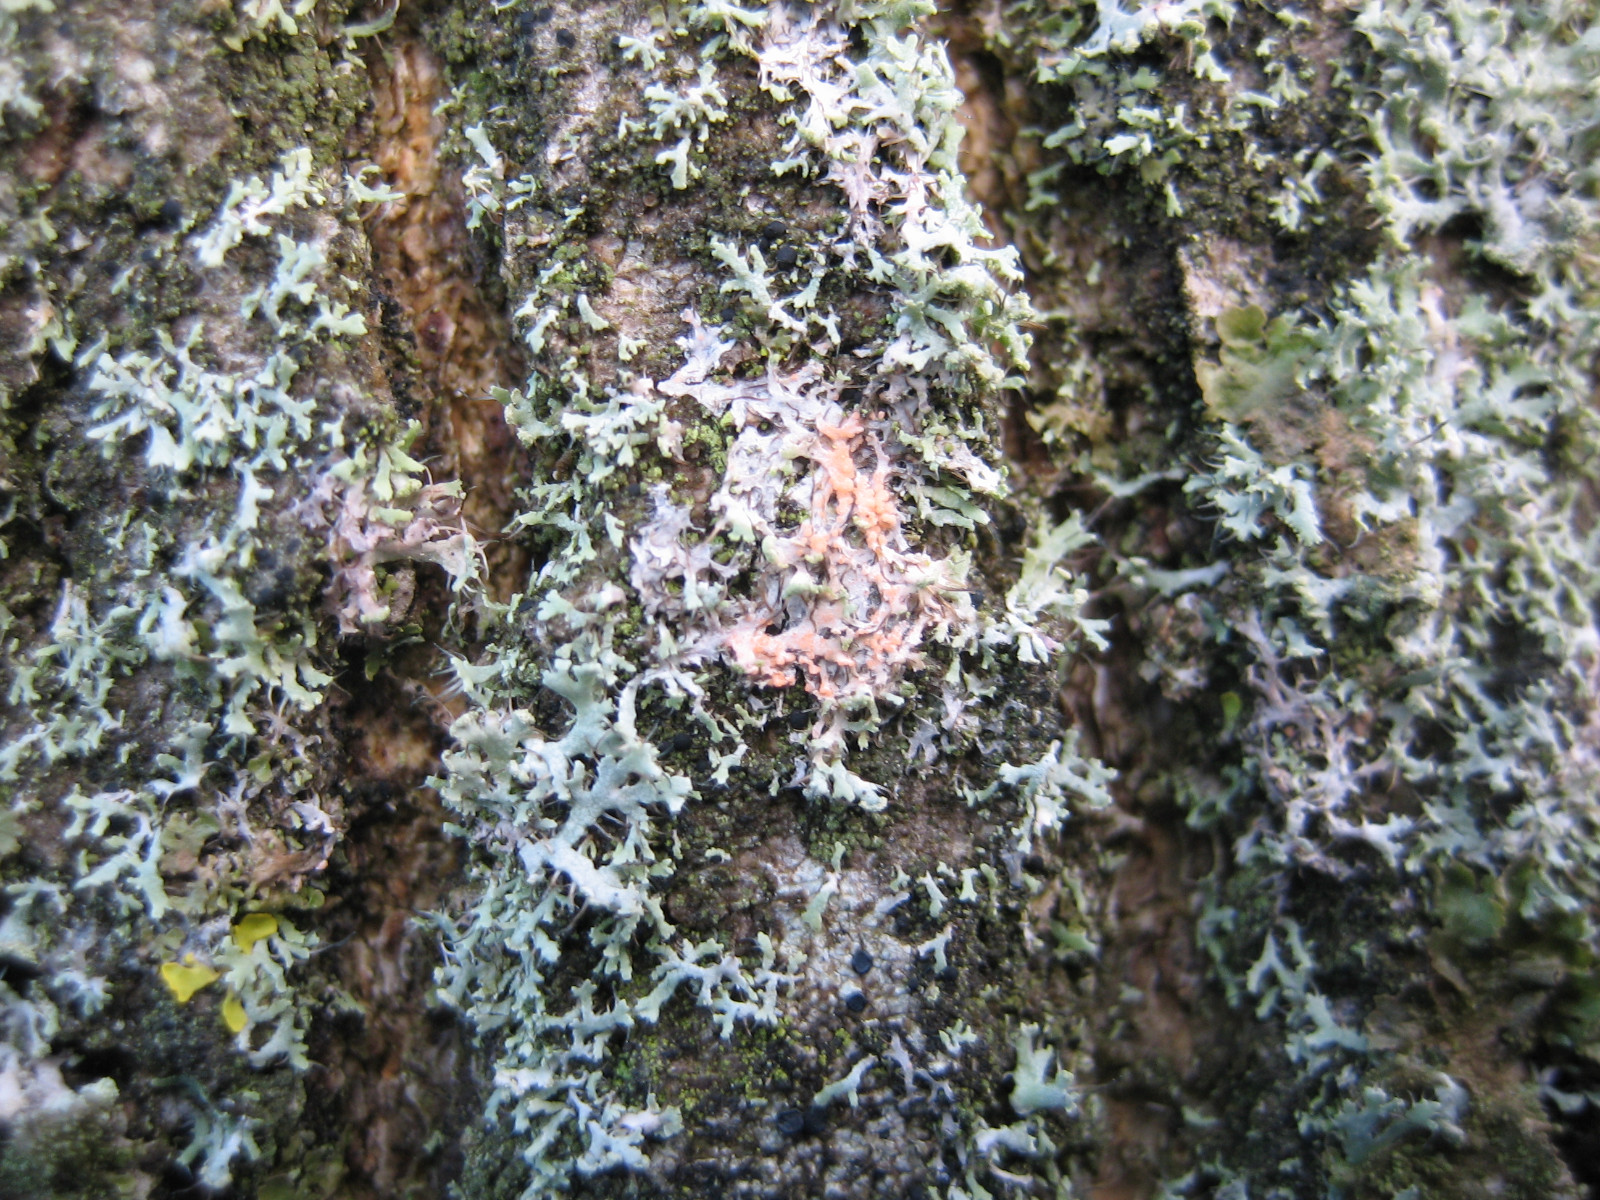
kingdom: Fungi
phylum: Basidiomycota
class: Agaricomycetes
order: Corticiales
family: Corticiaceae
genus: Erythricium
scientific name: Erythricium aurantiacum
